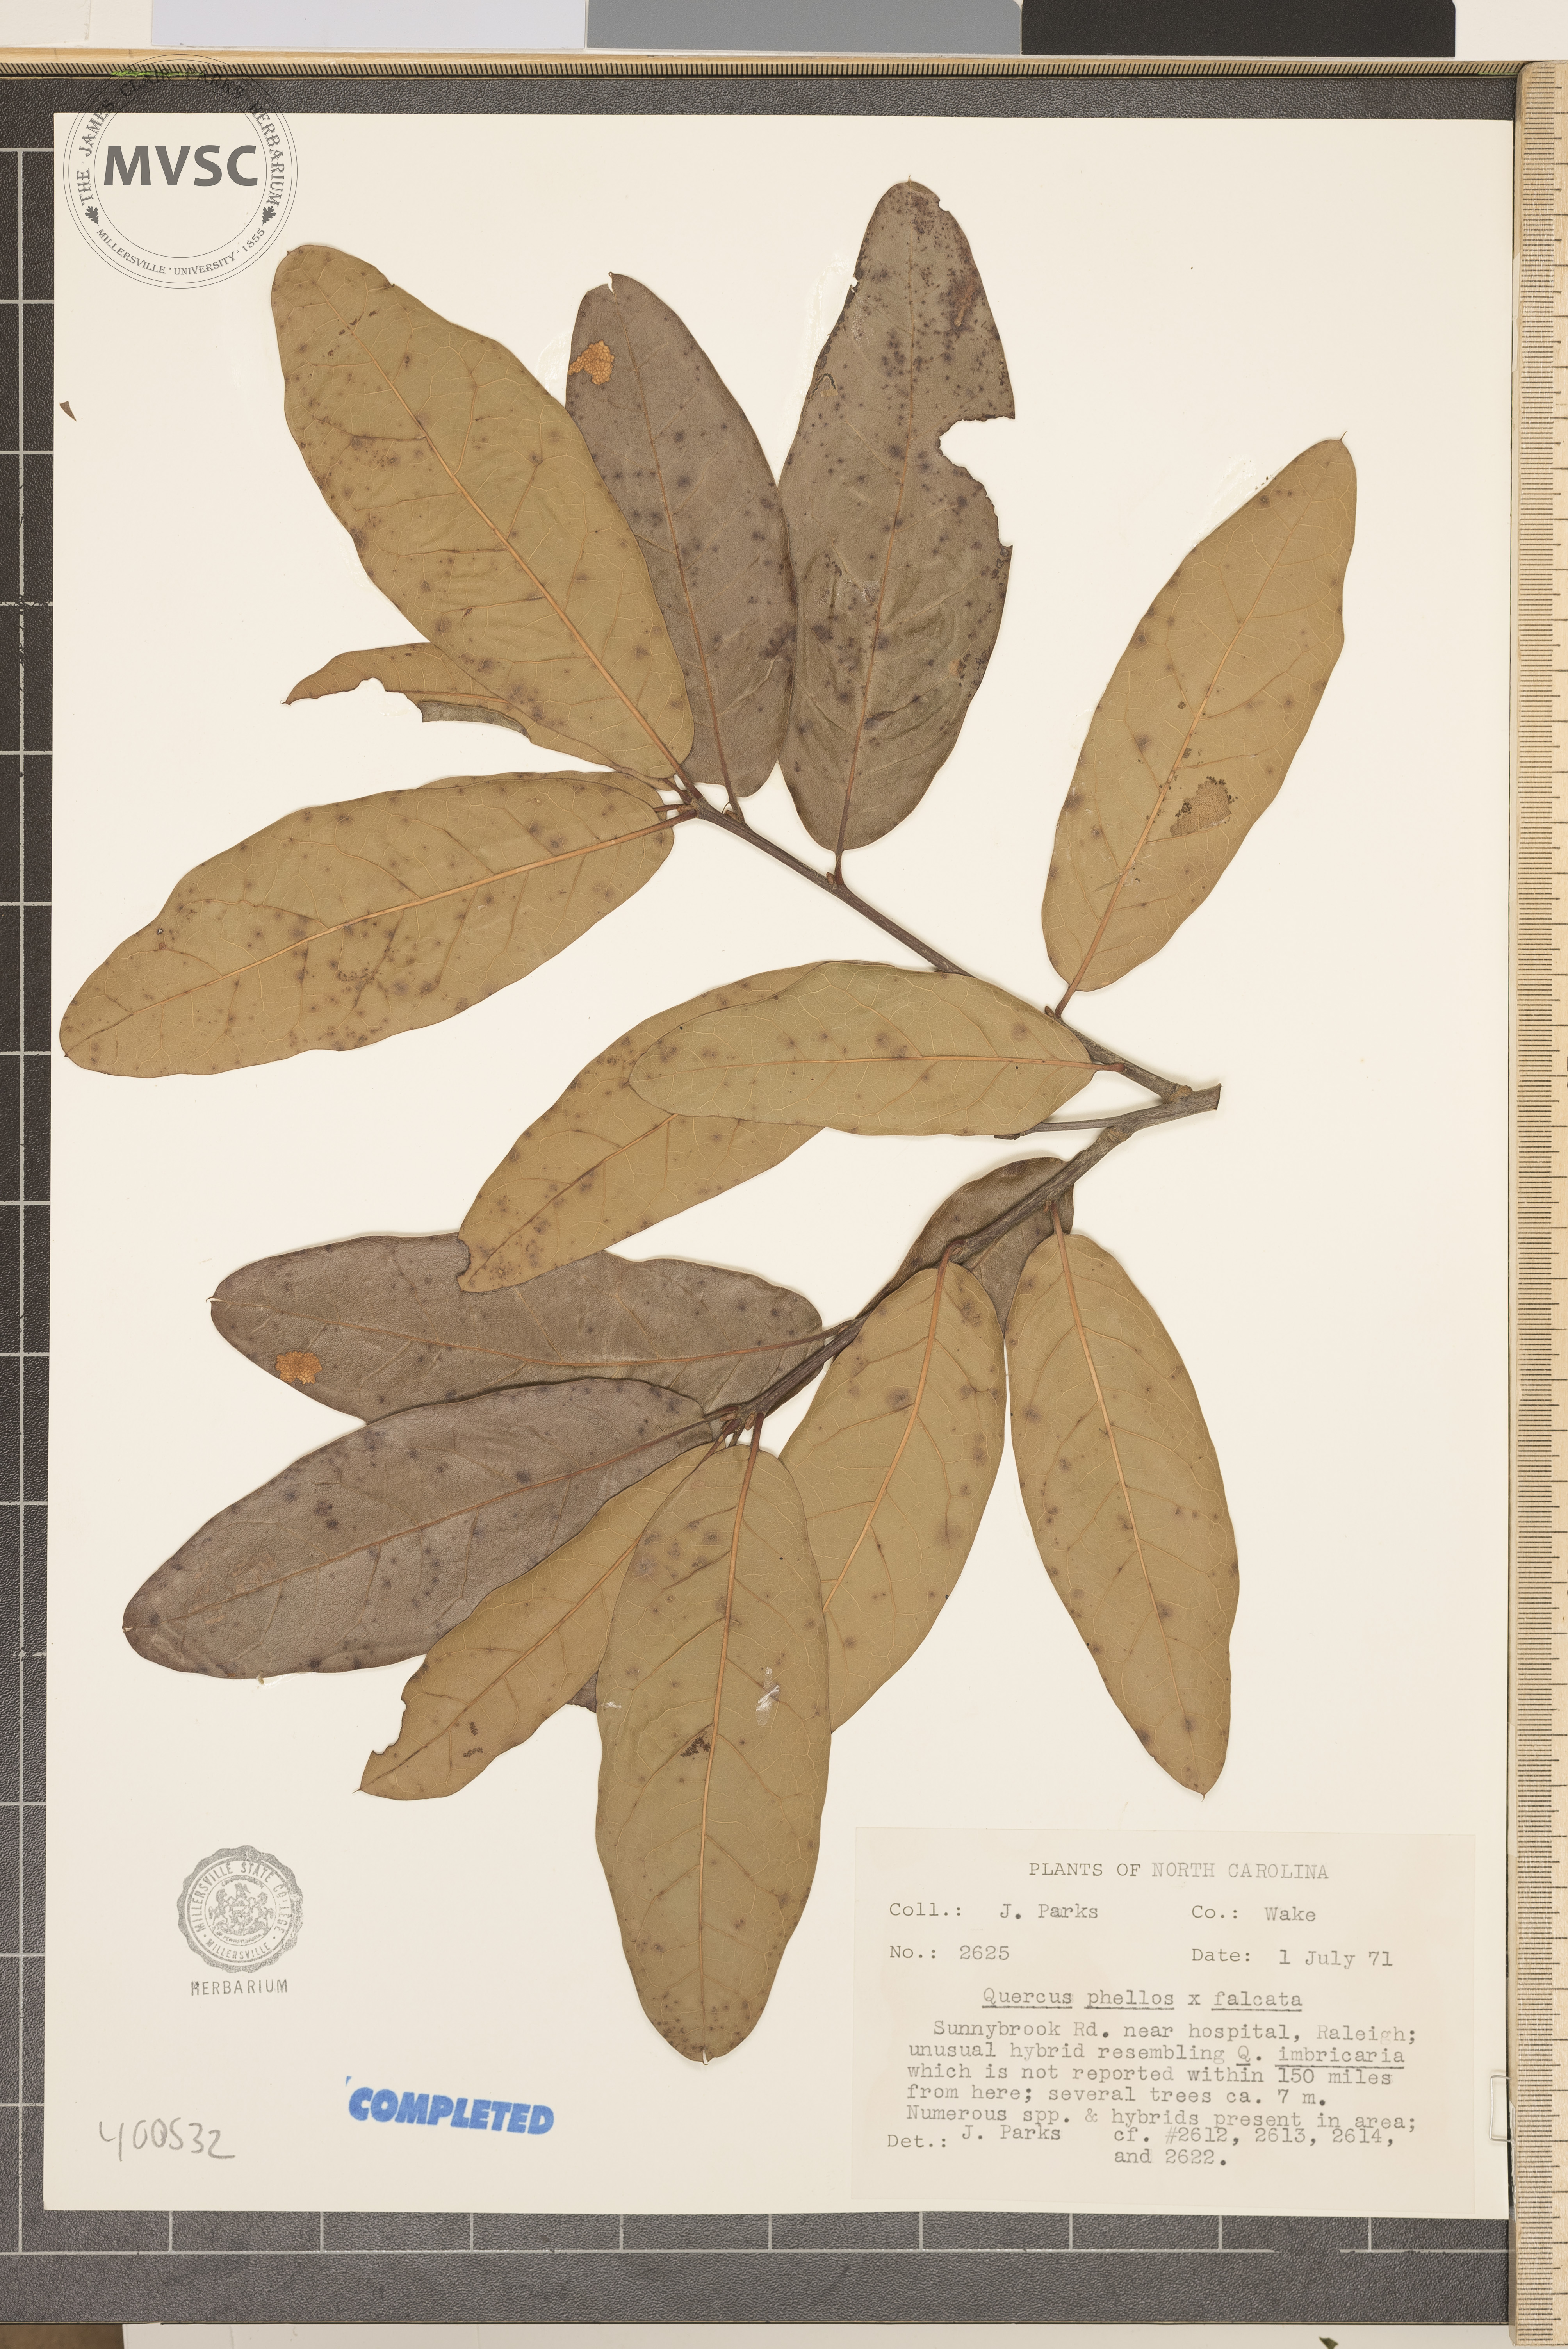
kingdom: Plantae
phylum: Tracheophyta
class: Magnoliopsida
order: Fagales
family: Fagaceae
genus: Quercus
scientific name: Quercus
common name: oak
